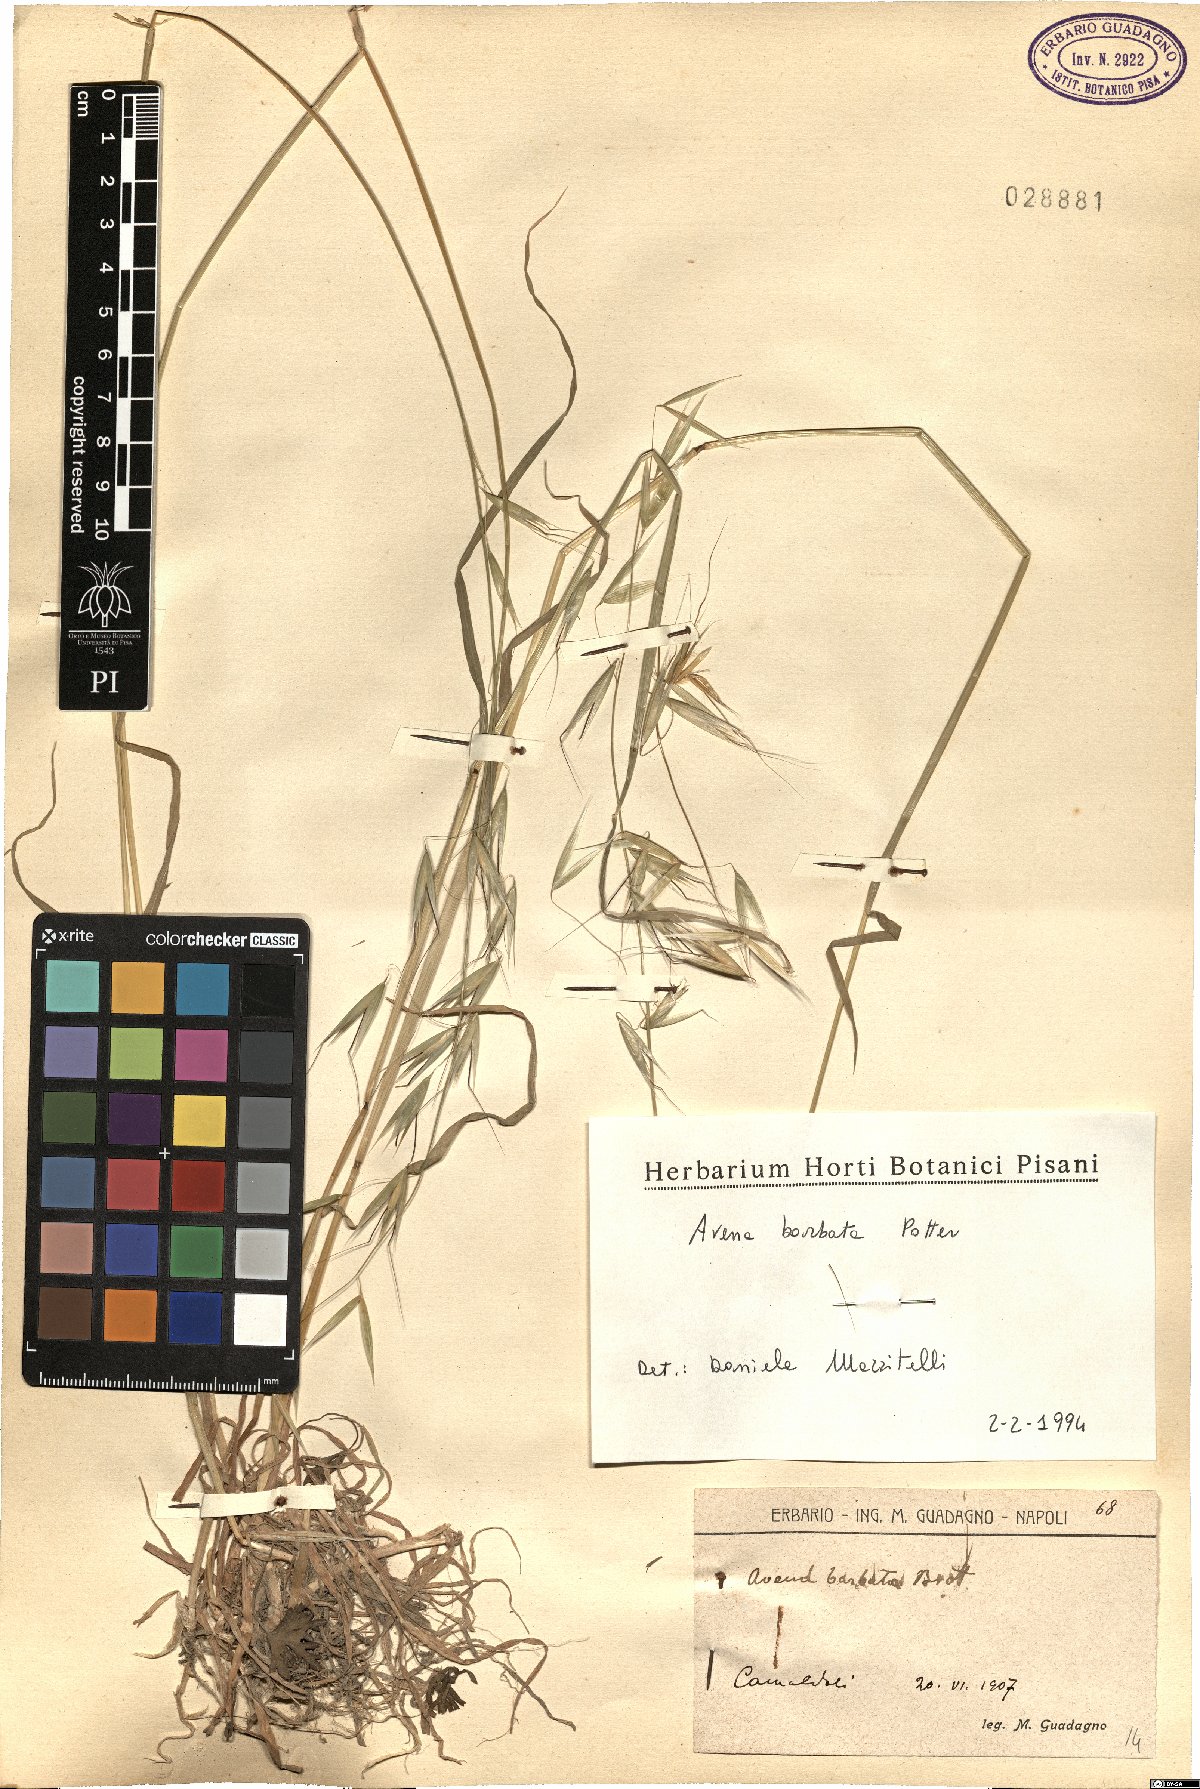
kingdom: Plantae
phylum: Tracheophyta
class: Liliopsida
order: Poales
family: Poaceae
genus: Avena
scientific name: Avena barbata
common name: Slender oat
